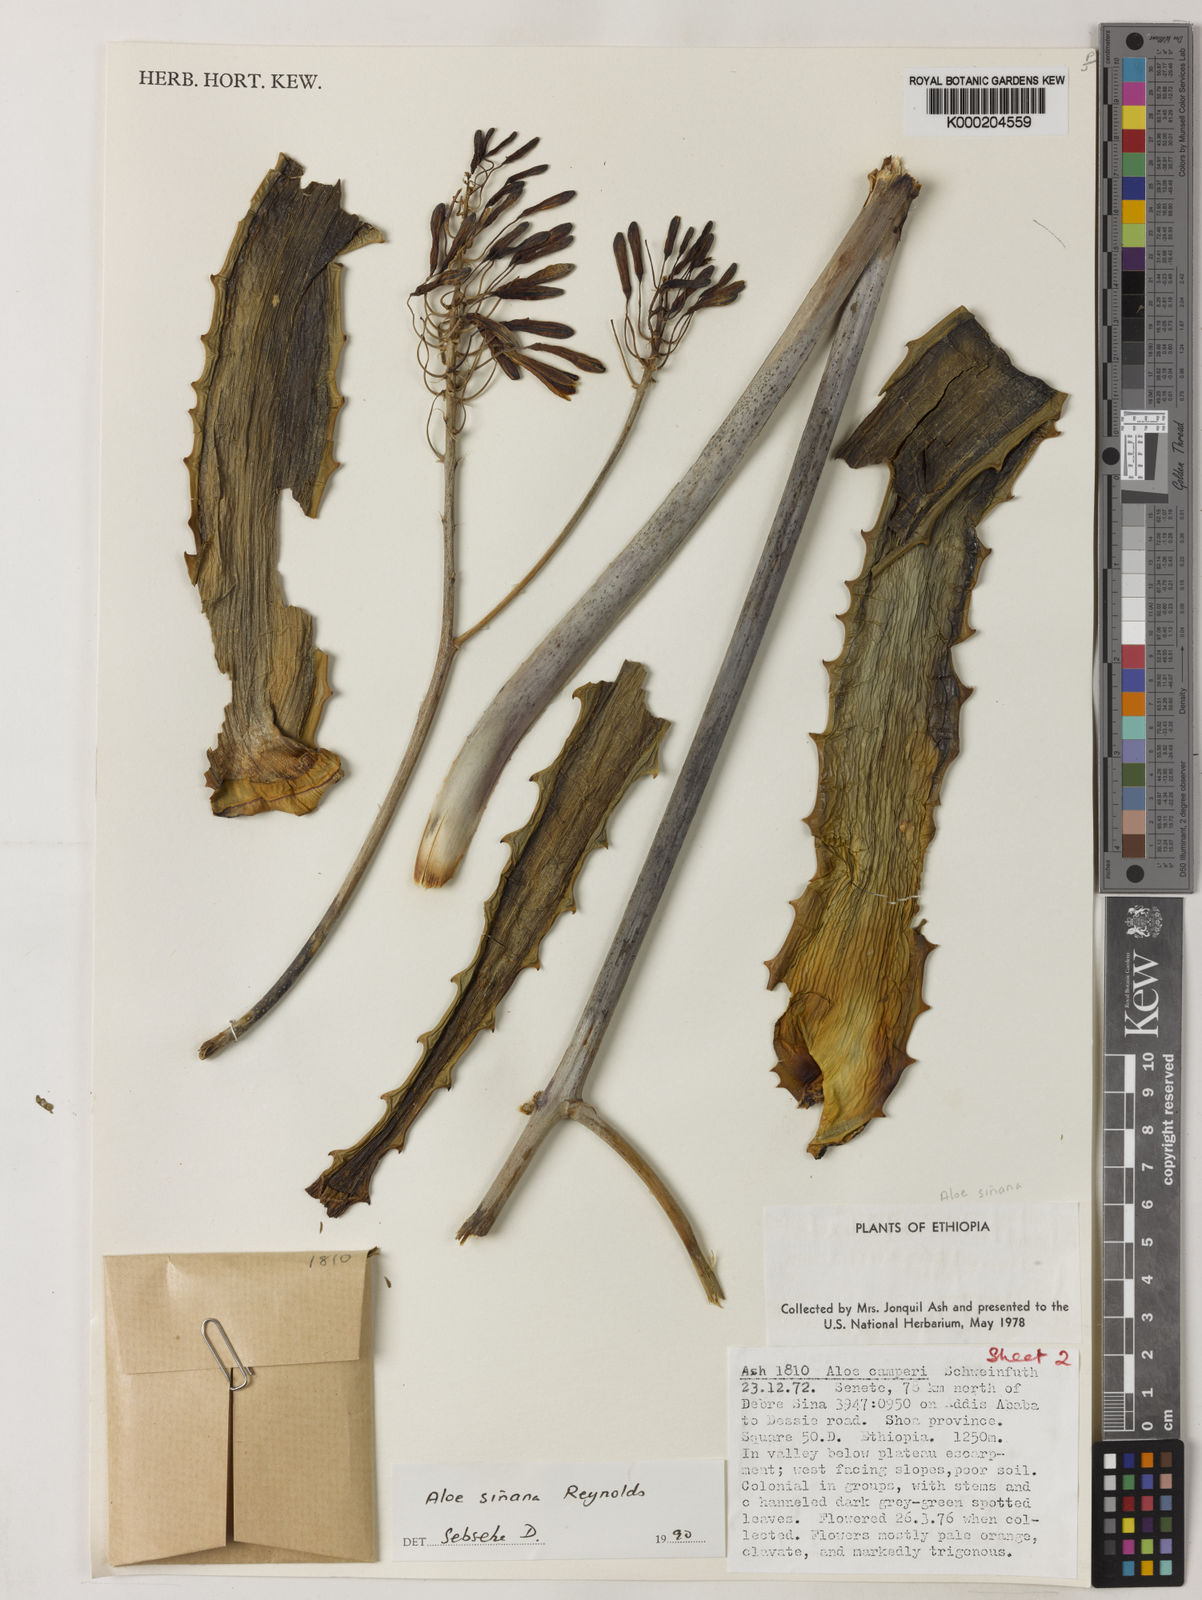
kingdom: Plantae
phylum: Tracheophyta
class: Liliopsida
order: Asparagales
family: Asphodelaceae
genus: Aloe
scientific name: Aloe sinana
